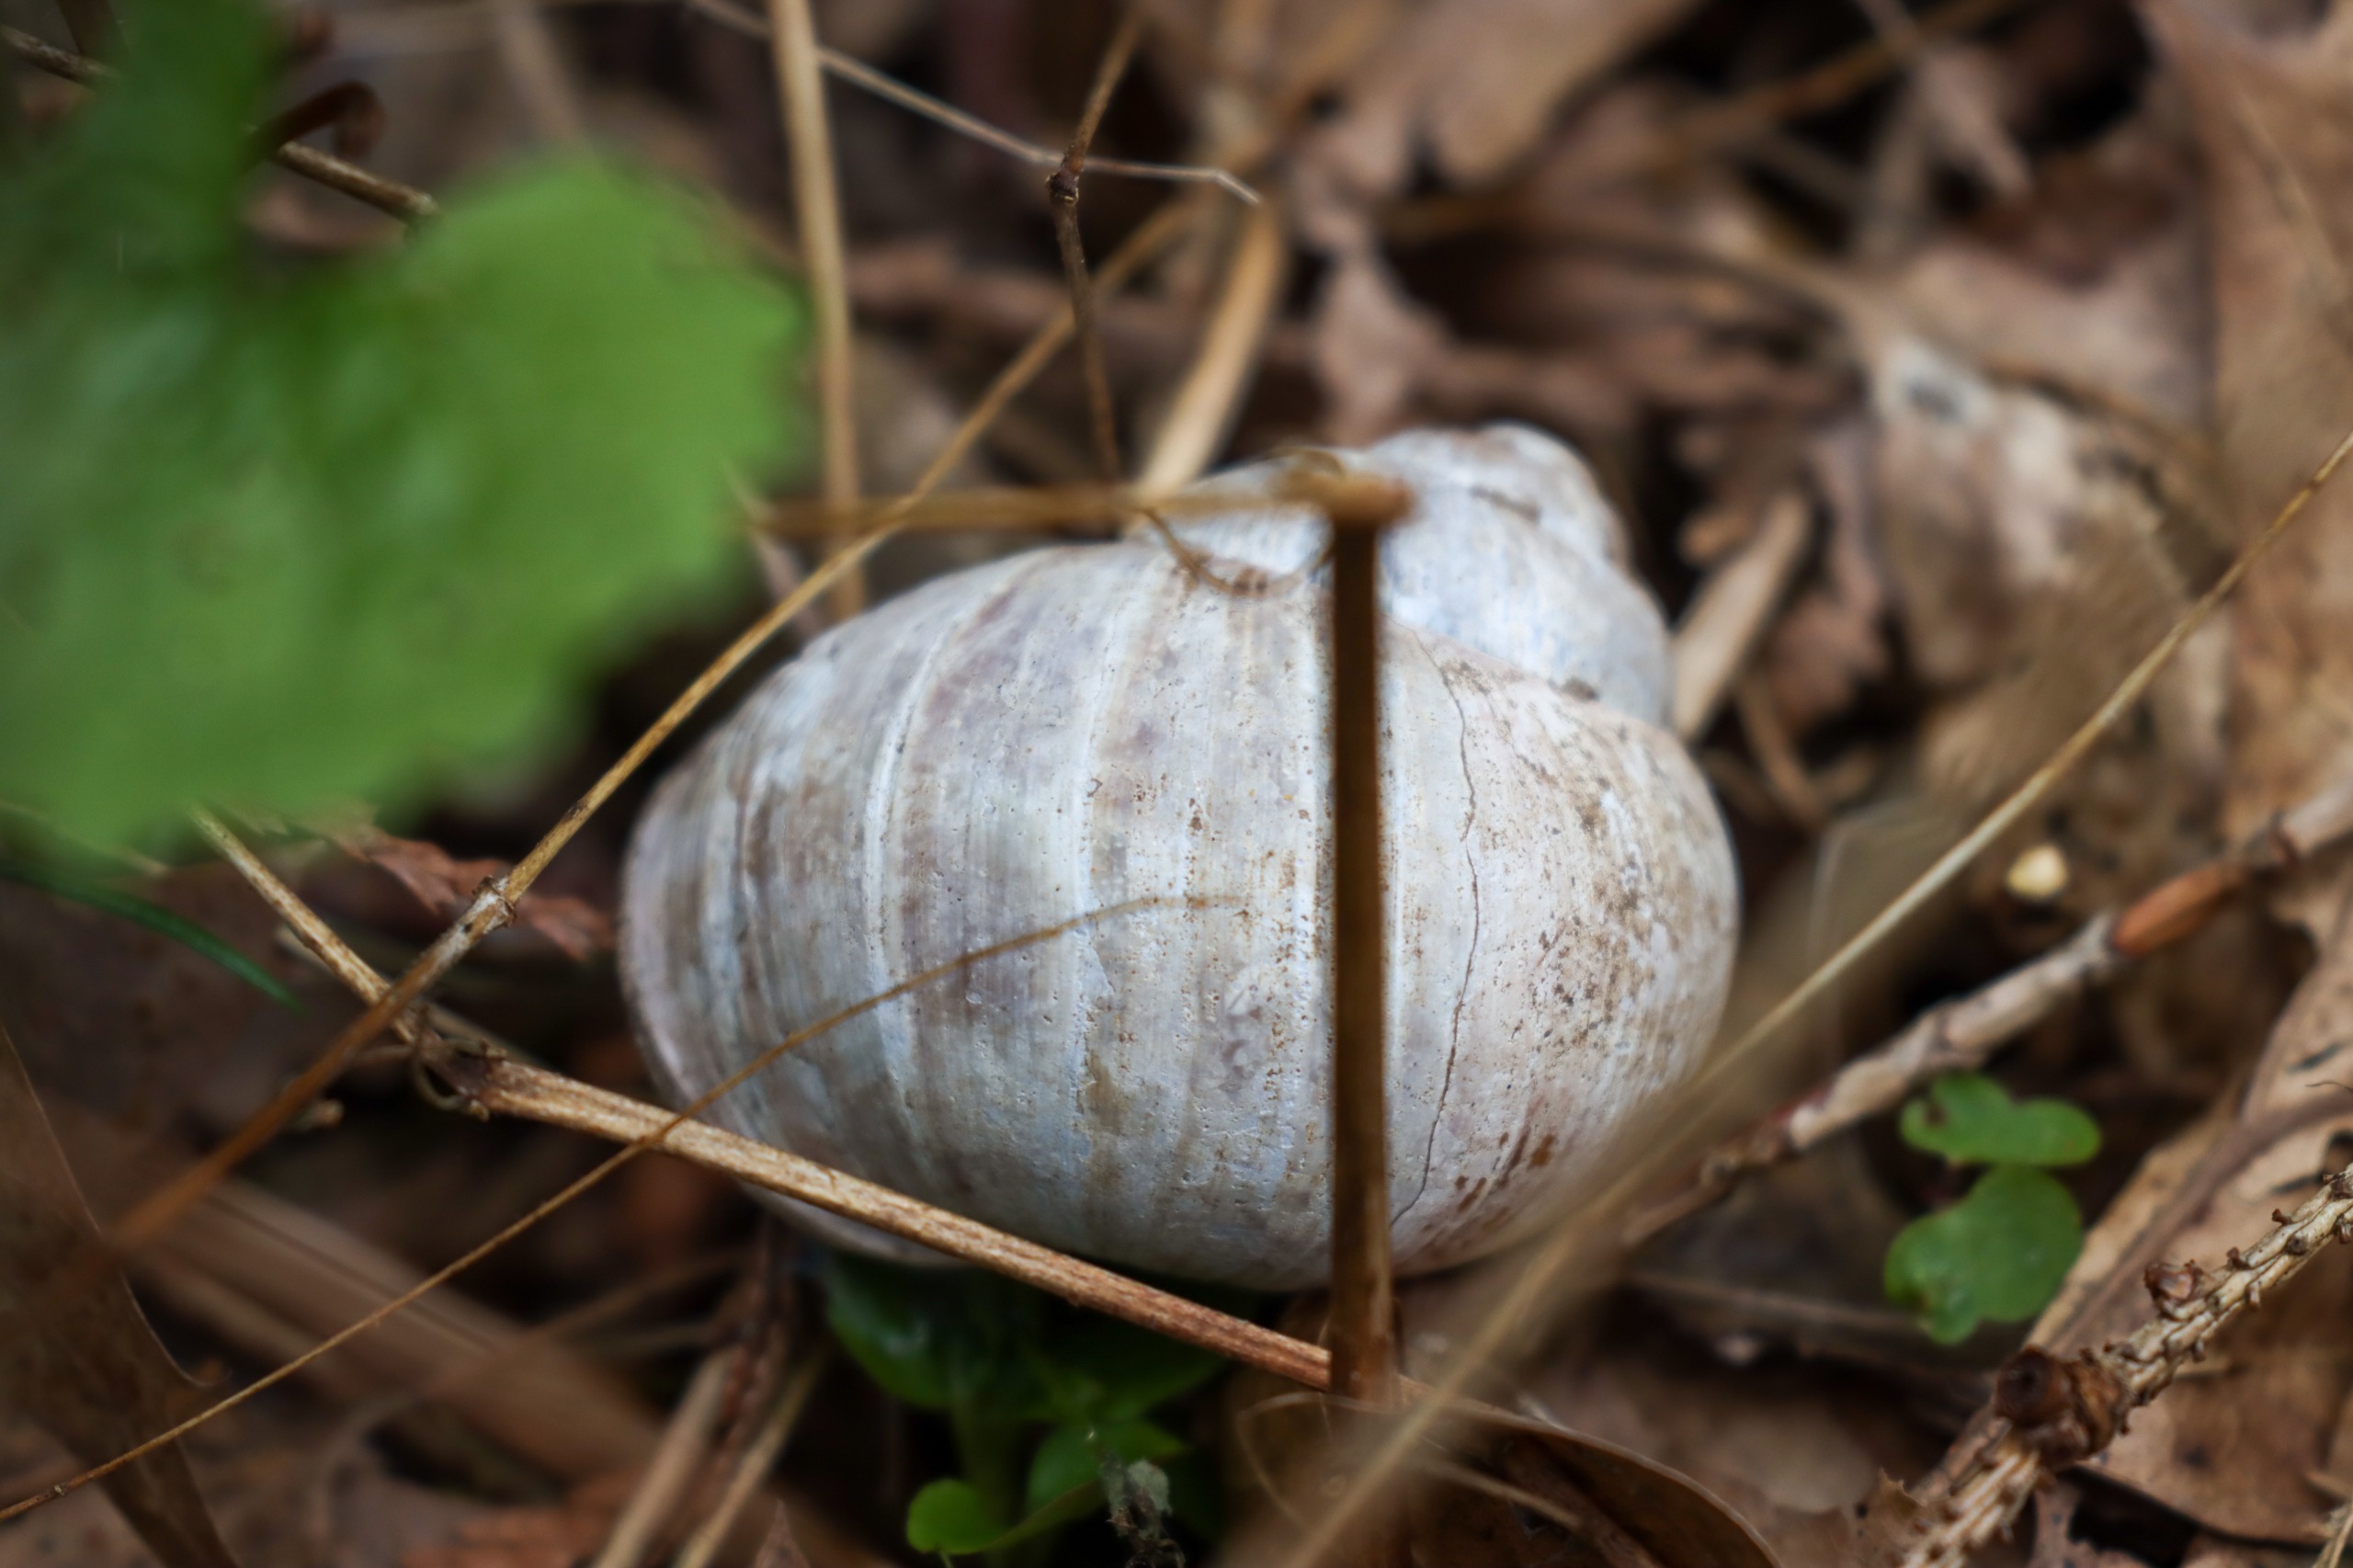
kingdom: Animalia
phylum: Mollusca
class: Gastropoda
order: Stylommatophora
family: Helicidae
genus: Helix
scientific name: Helix pomatia
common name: Vinbjergsnegl
